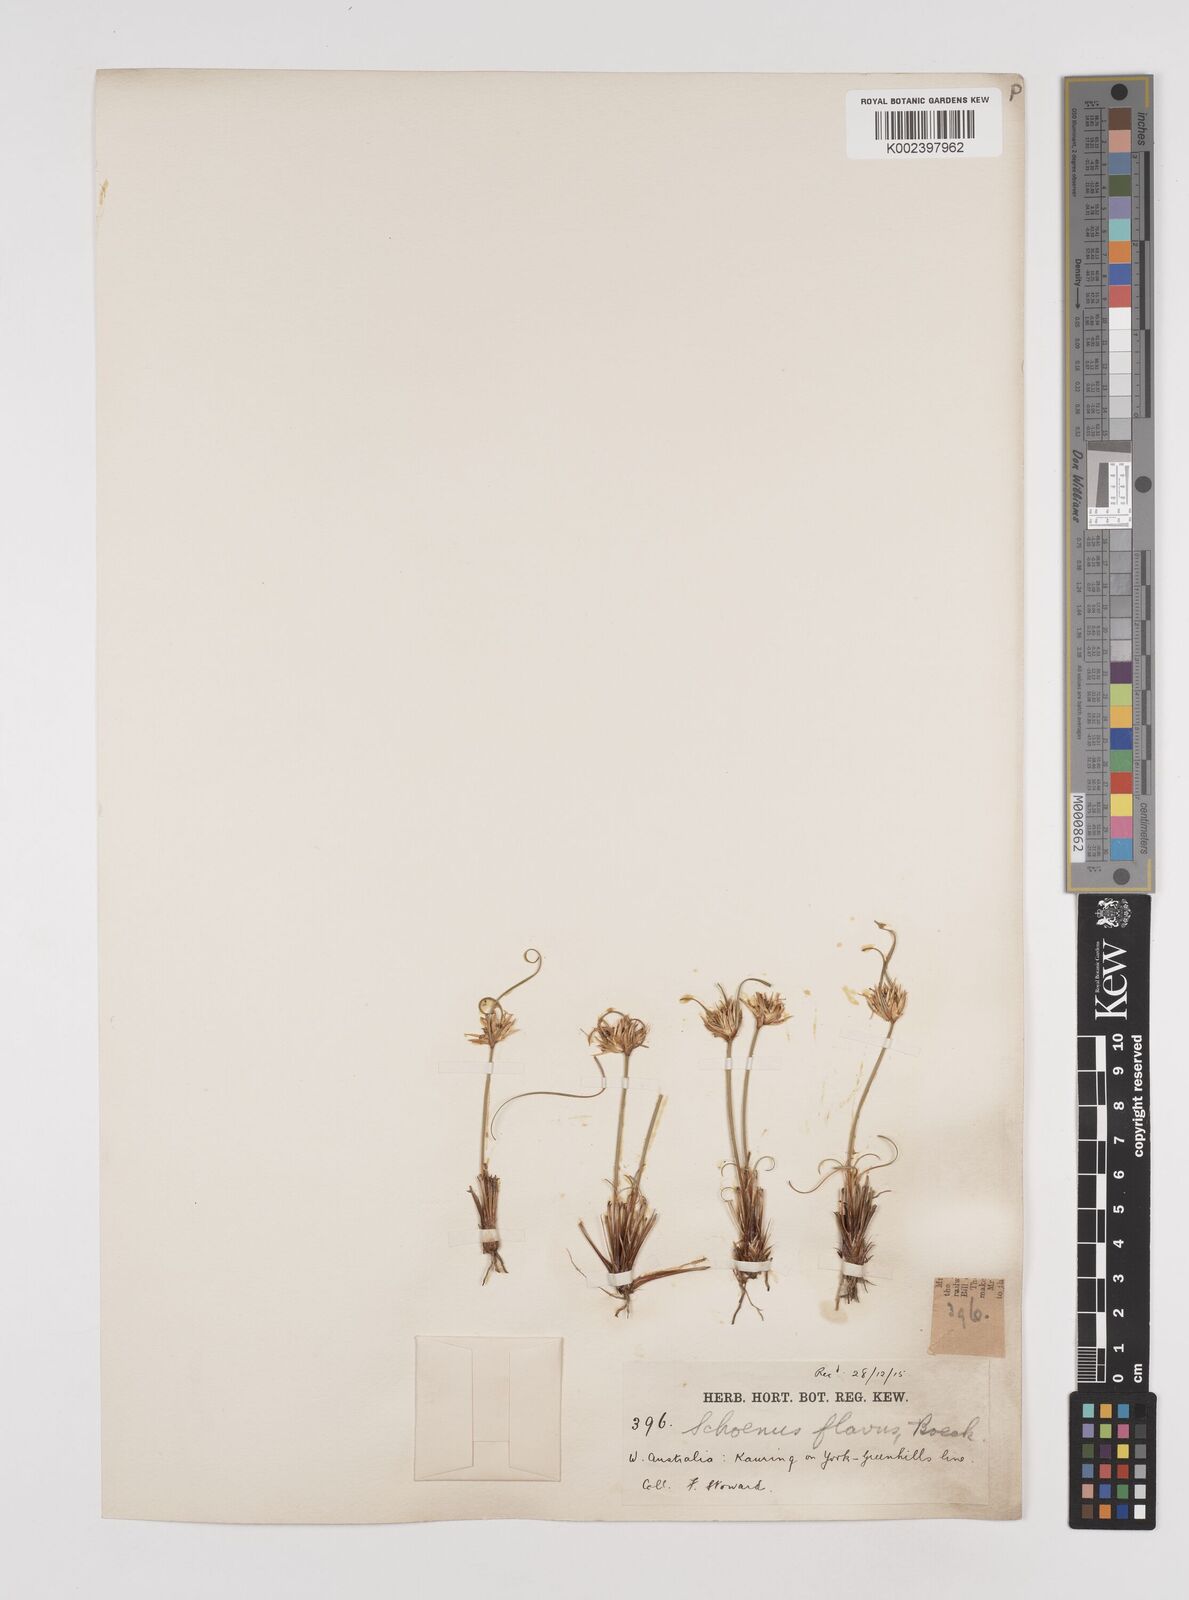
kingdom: Plantae
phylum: Tracheophyta
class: Liliopsida
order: Poales
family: Cyperaceae
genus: Schoenus
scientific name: Schoenus subflavus
